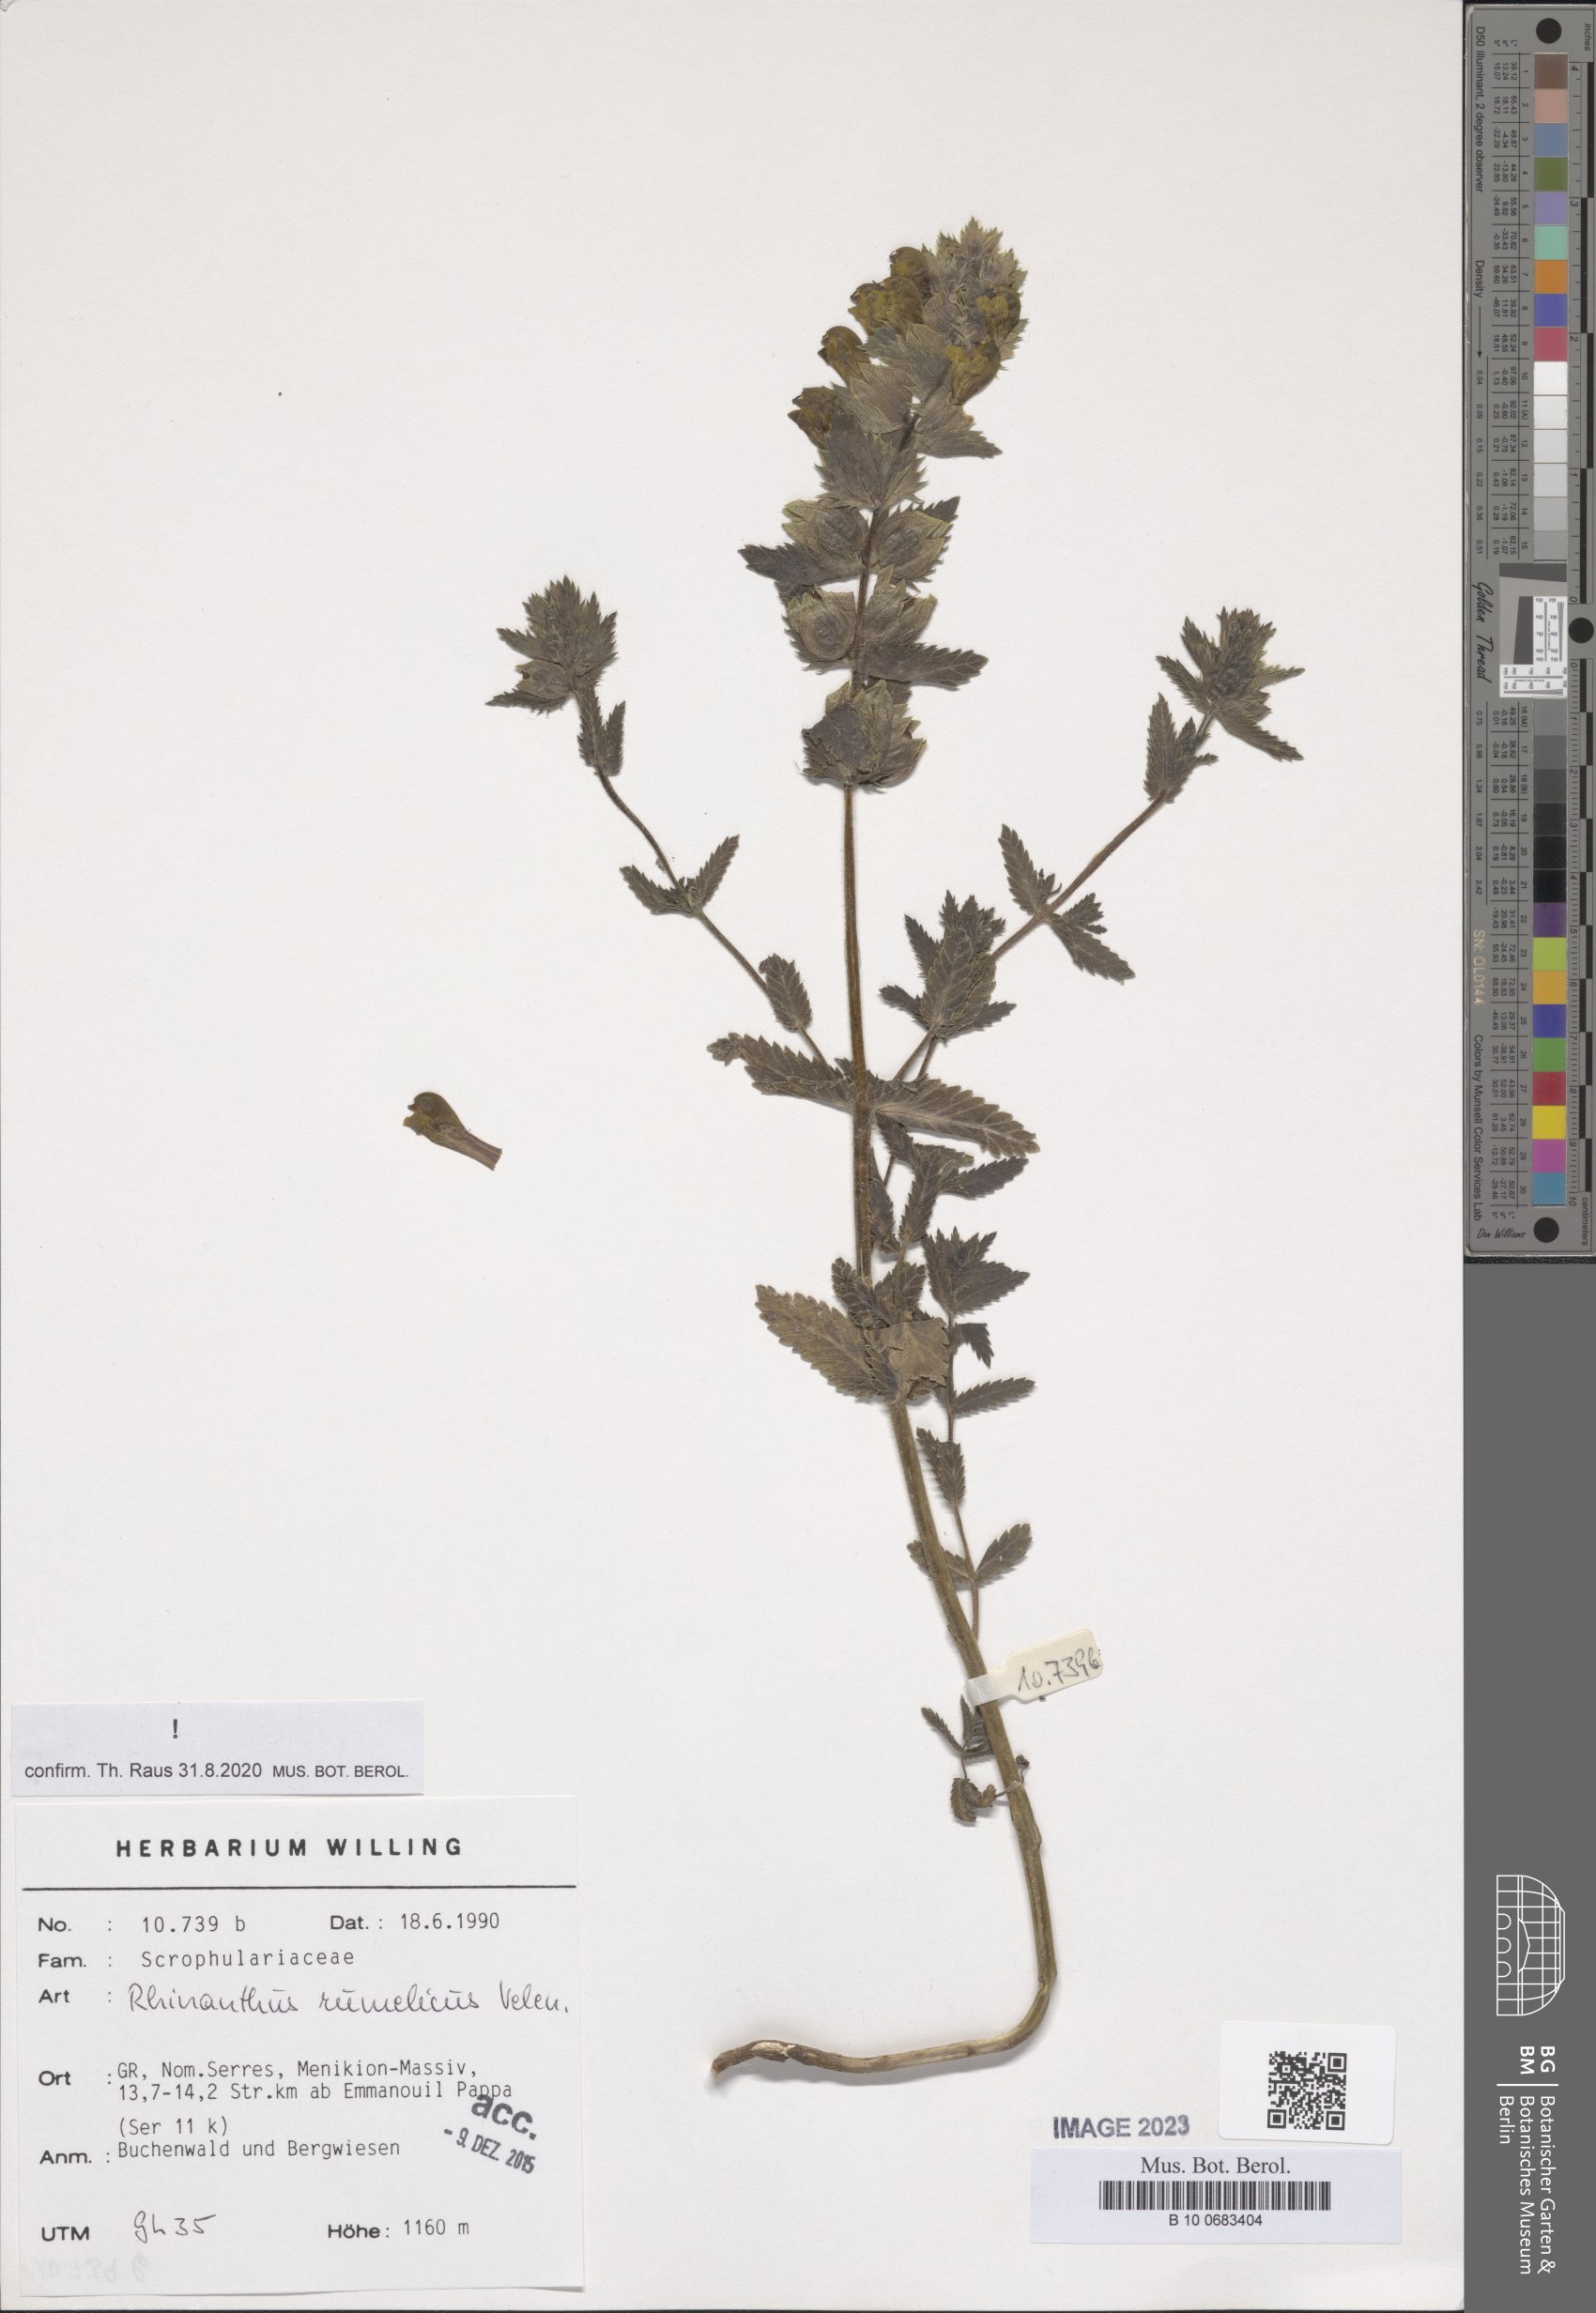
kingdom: Plantae
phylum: Tracheophyta
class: Magnoliopsida
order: Lamiales
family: Orobanchaceae
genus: Rhinanthus
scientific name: Rhinanthus rumelicus
